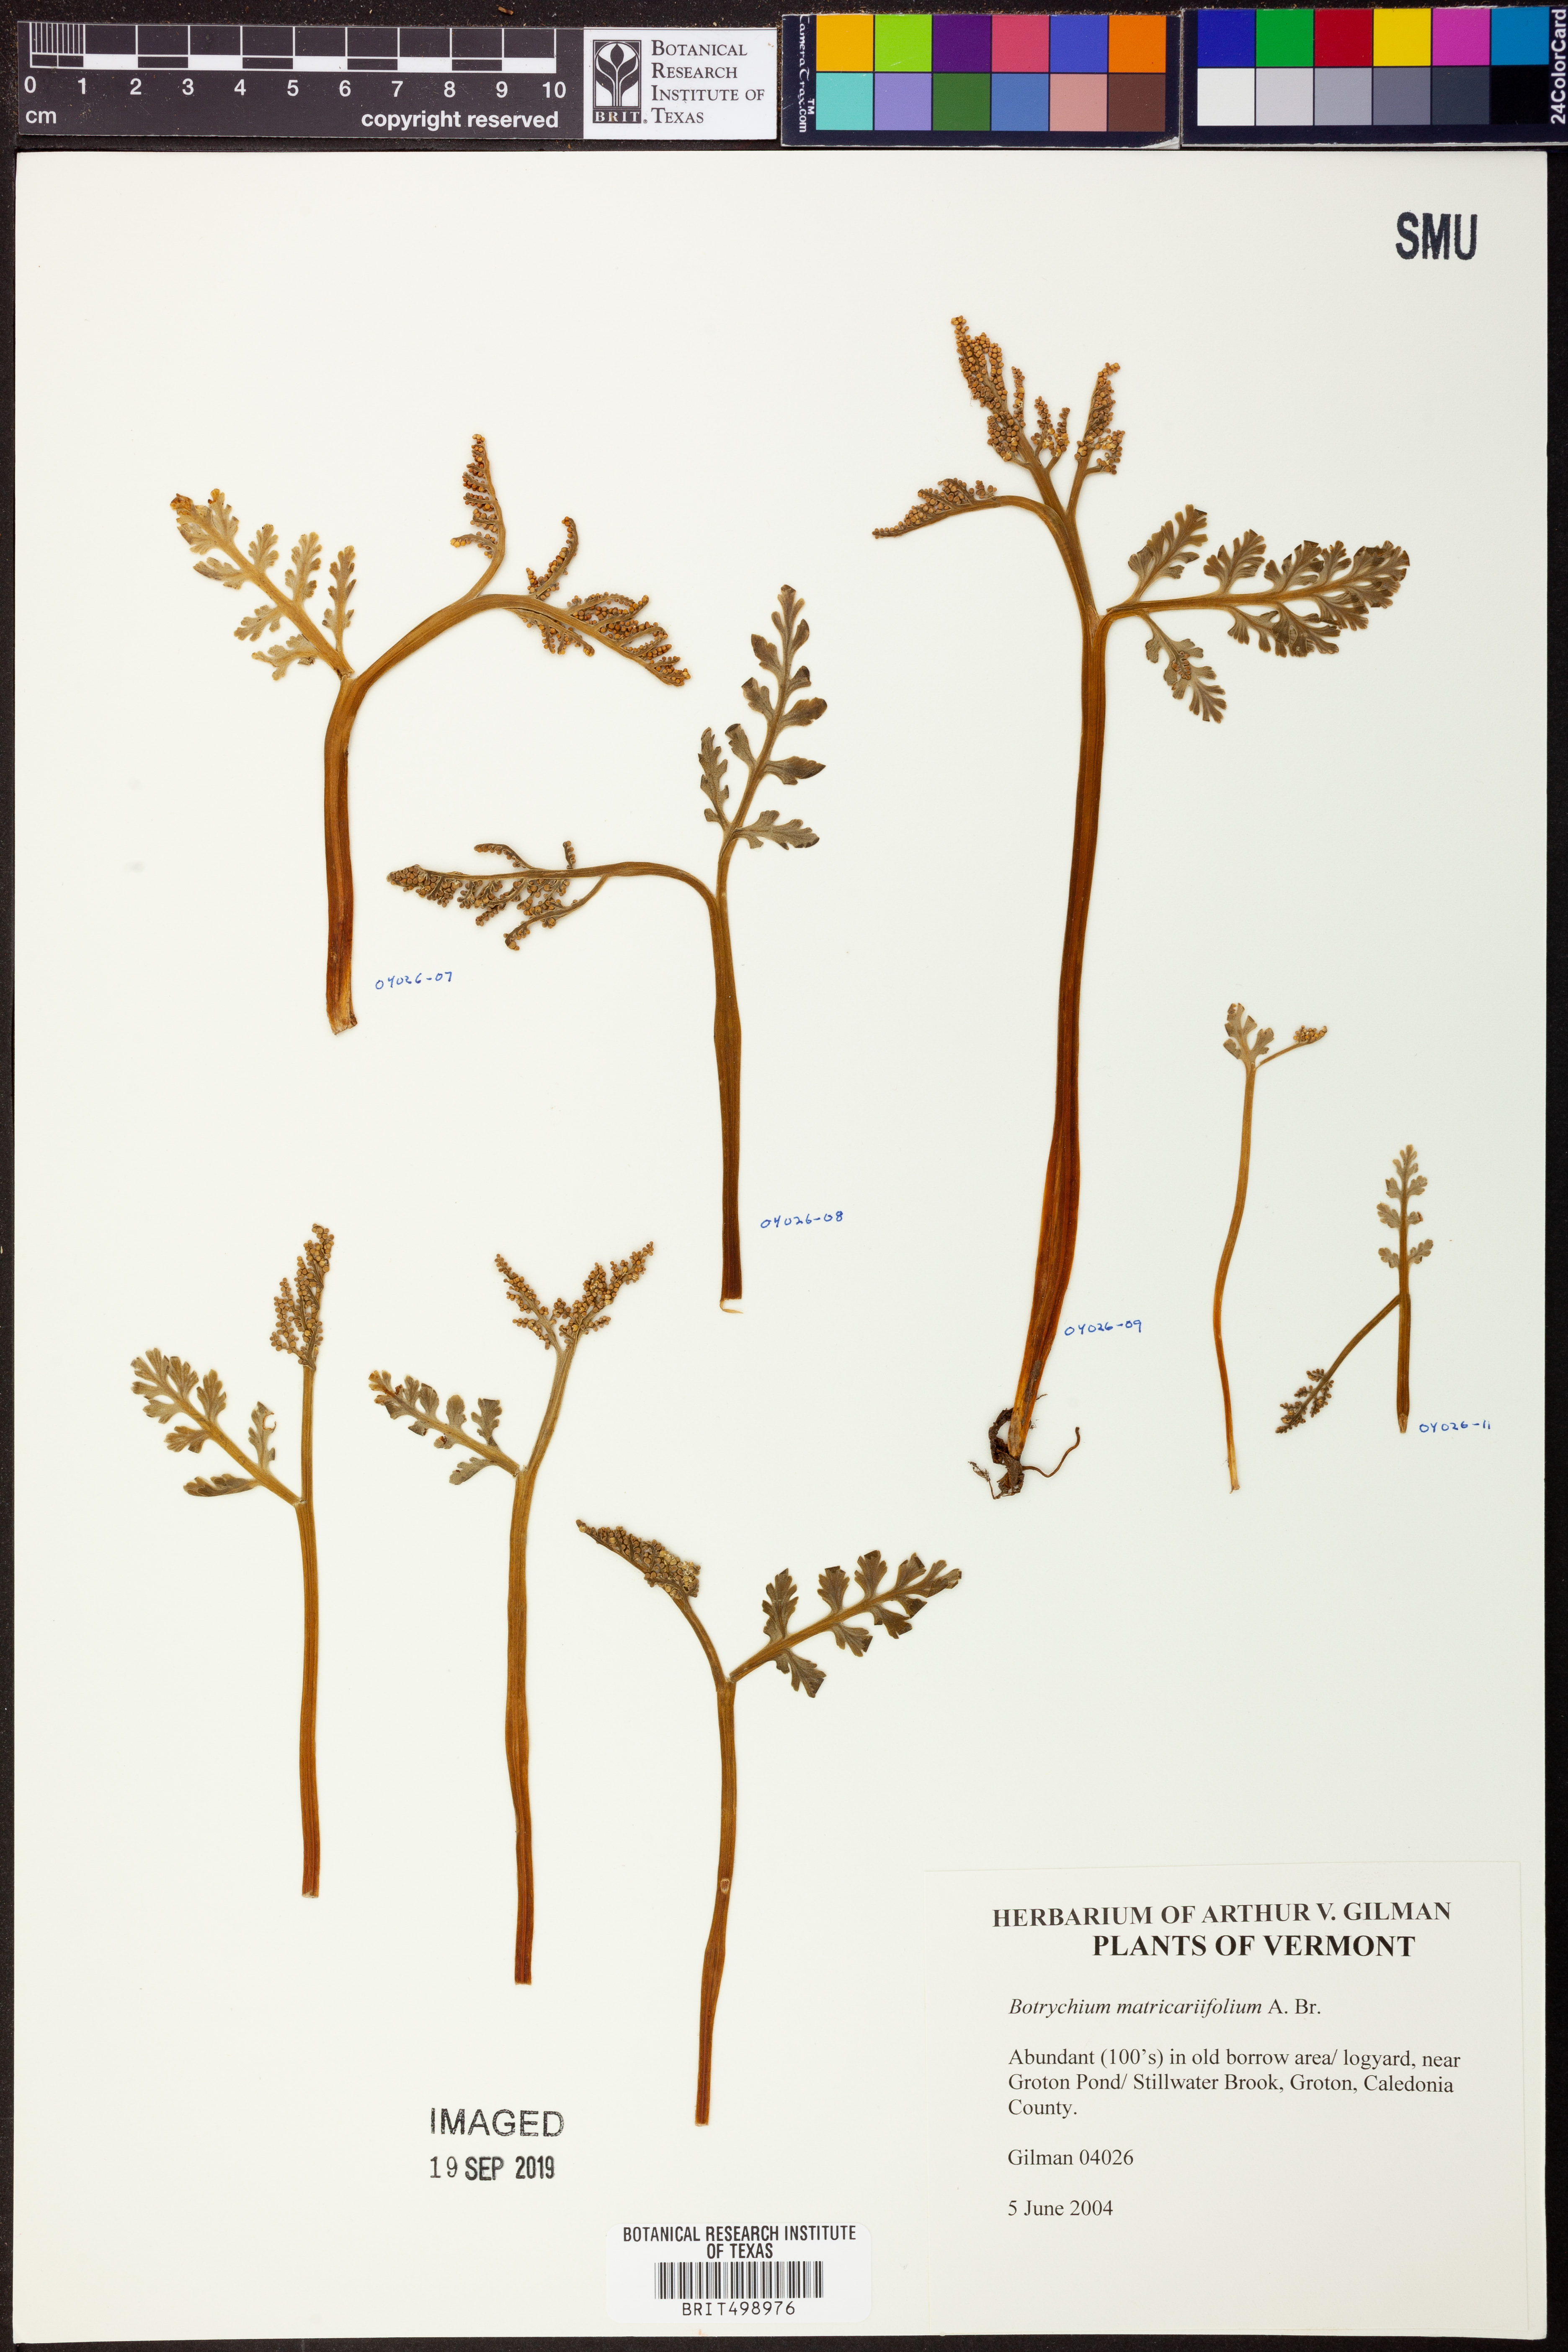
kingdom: Plantae
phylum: Tracheophyta
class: Polypodiopsida
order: Ophioglossales
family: Ophioglossaceae
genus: Botrychium
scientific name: Botrychium matricariifolium
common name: Branched moonwort
